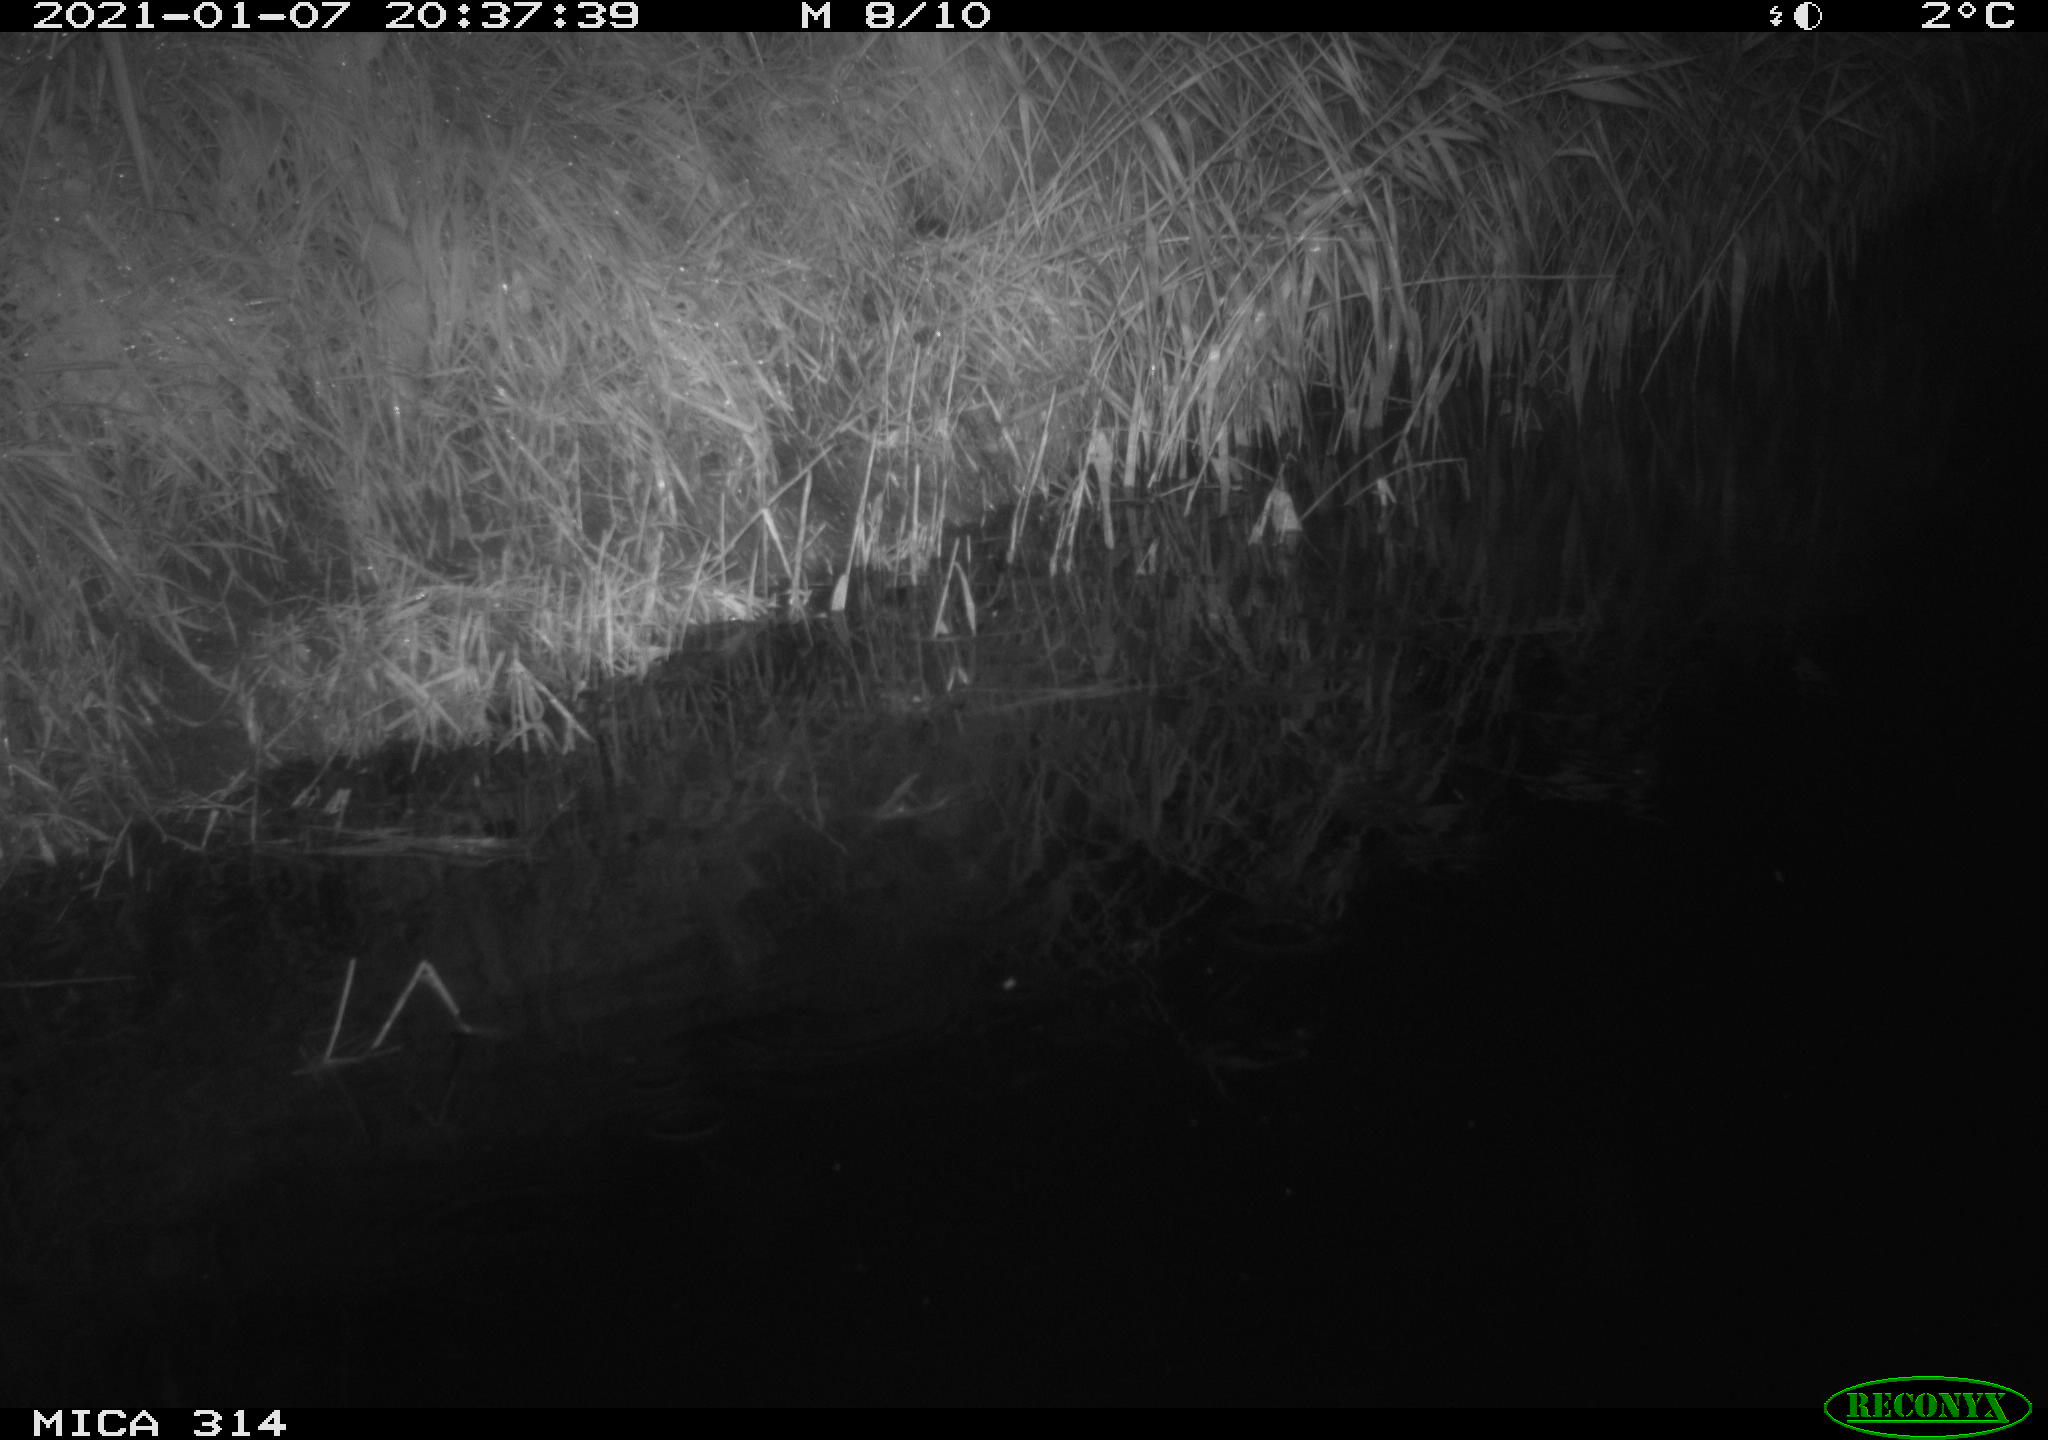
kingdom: Animalia
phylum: Chordata
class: Mammalia
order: Rodentia
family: Muridae
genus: Rattus
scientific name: Rattus norvegicus
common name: Brown rat
